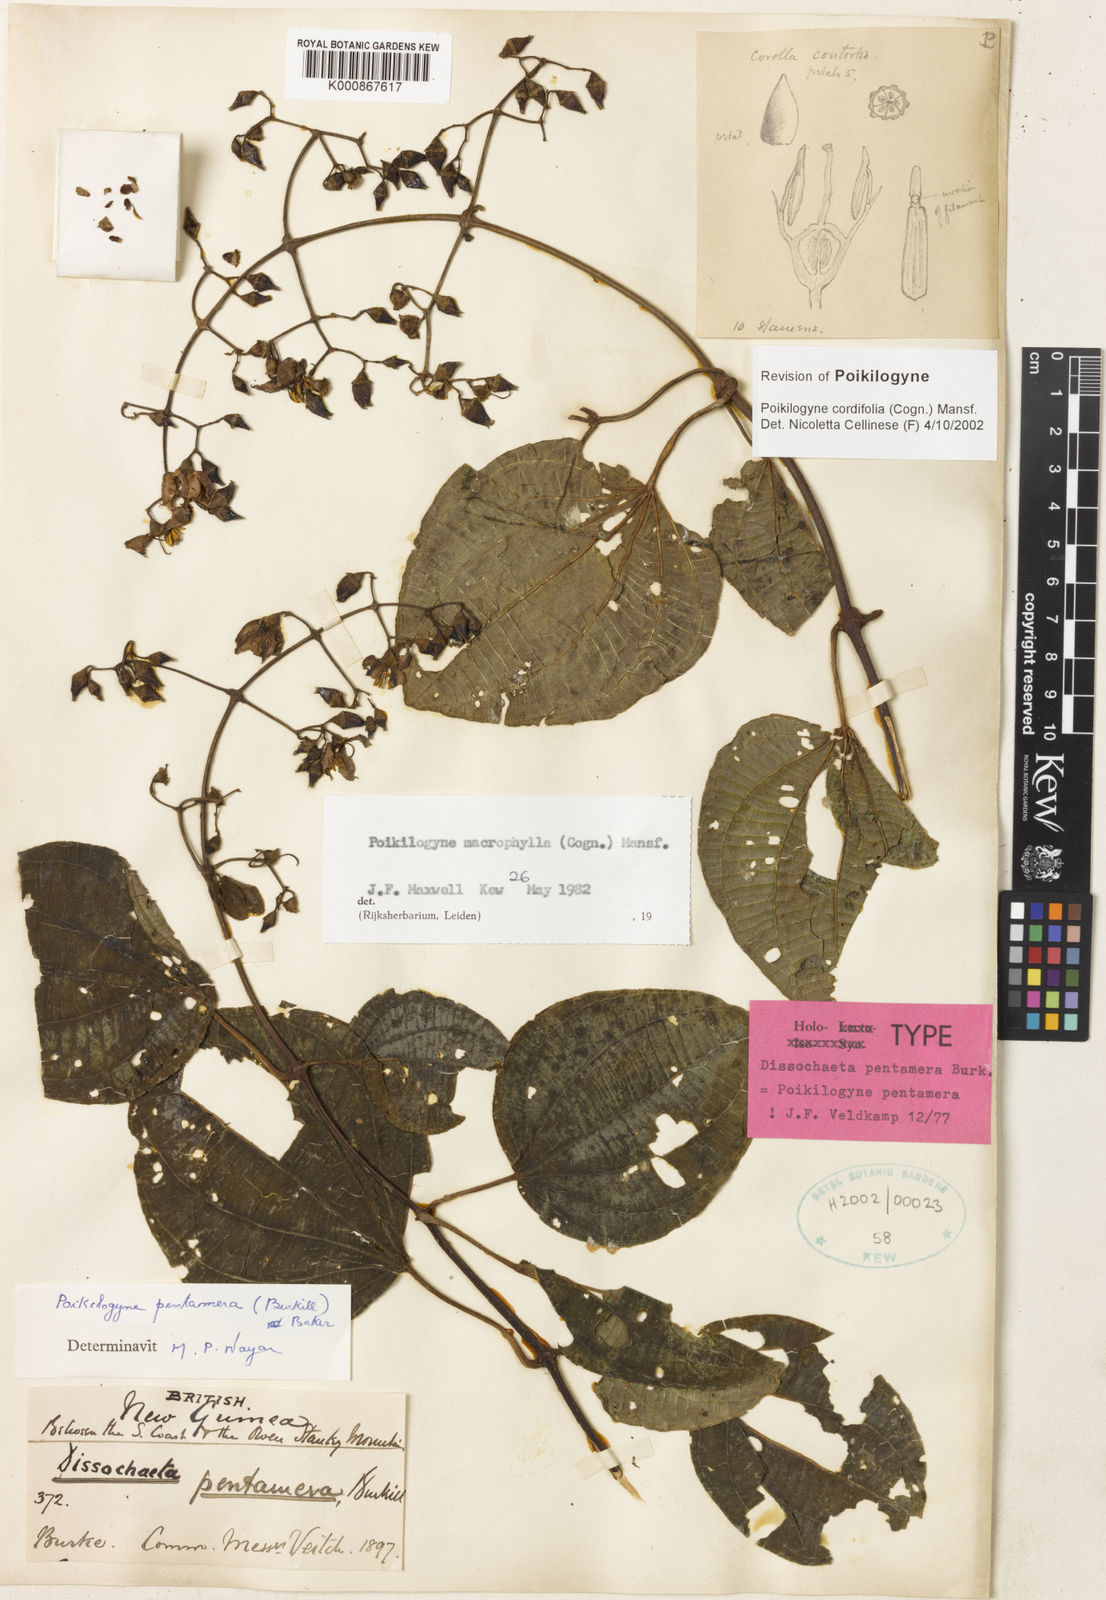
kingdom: Plantae
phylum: Tracheophyta
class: Magnoliopsida
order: Myrtales
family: Melastomataceae
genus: Poikilogyne
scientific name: Poikilogyne cordifolia
